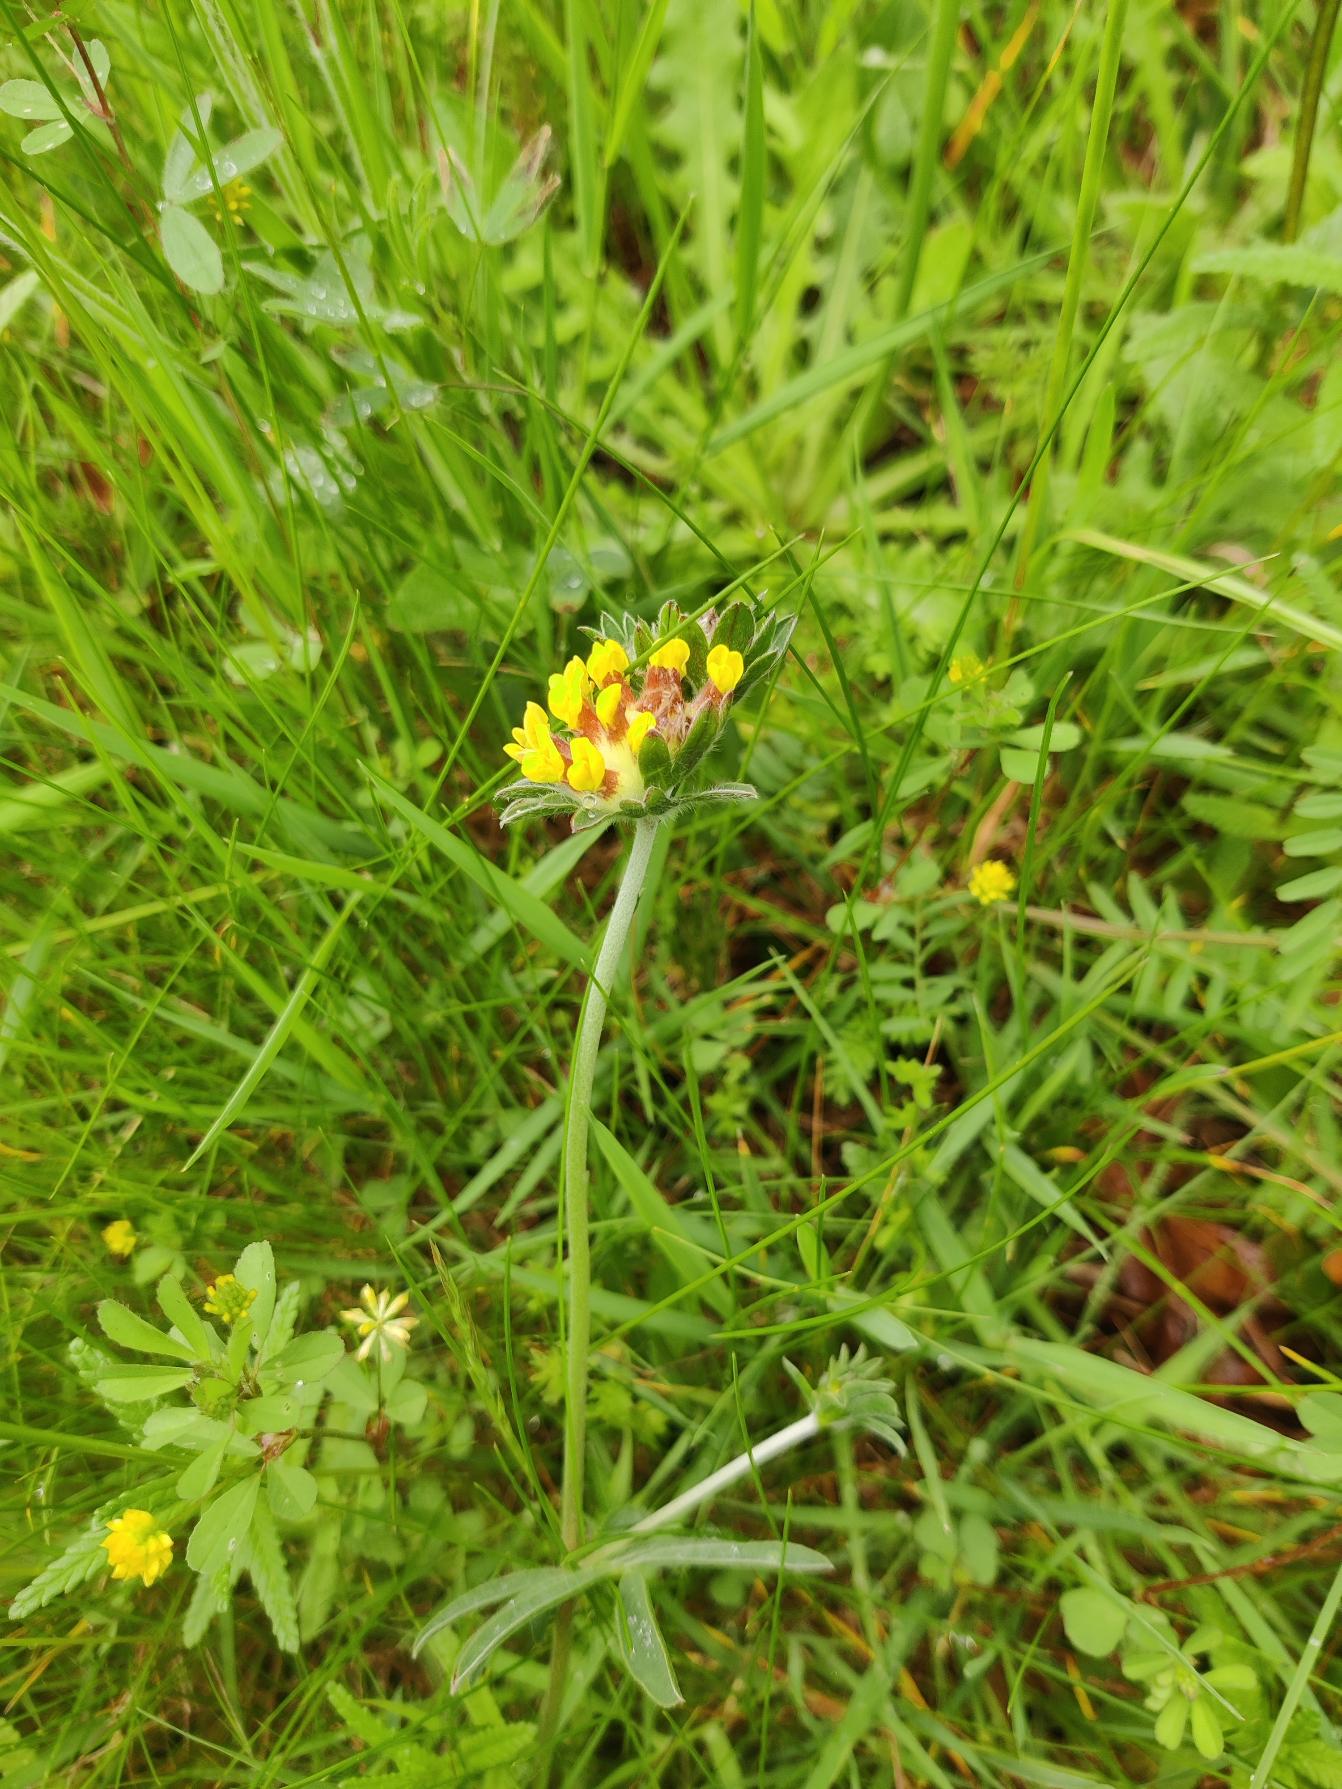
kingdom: Plantae
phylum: Tracheophyta
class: Magnoliopsida
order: Fabales
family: Fabaceae
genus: Anthyllis
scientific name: Anthyllis vulneraria
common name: Rundbælg
